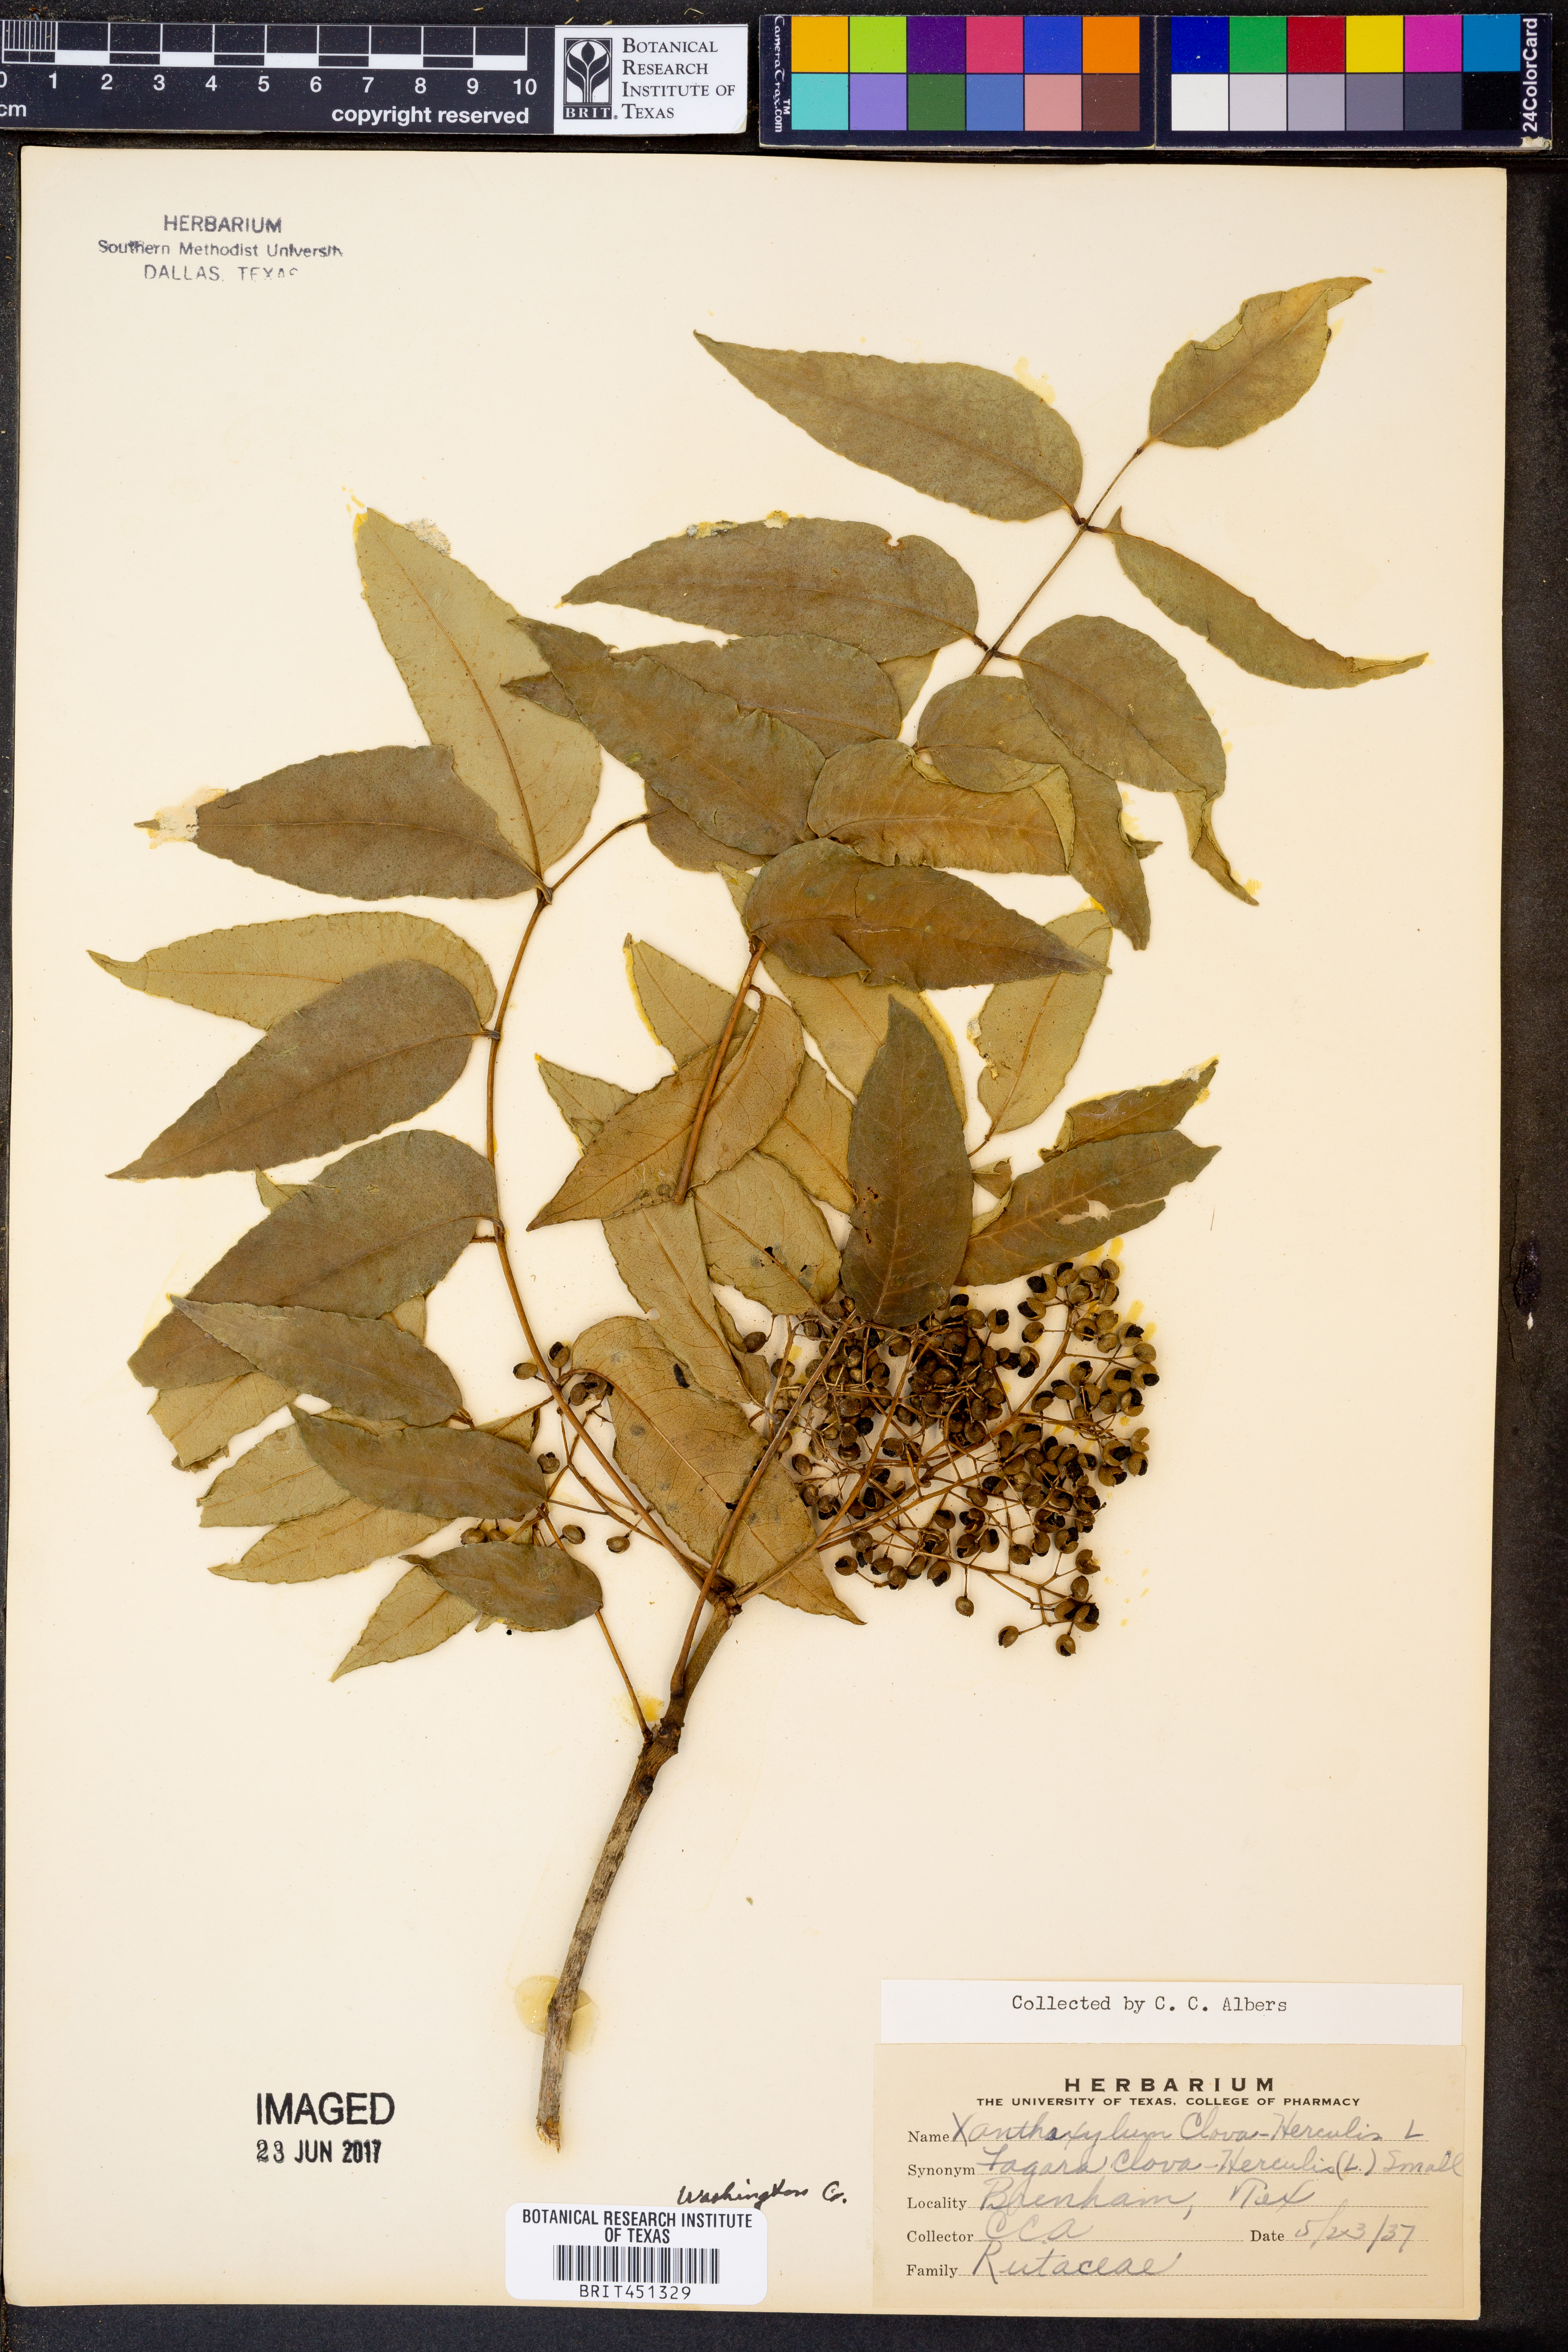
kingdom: Plantae
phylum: Tracheophyta
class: Magnoliopsida
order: Sapindales
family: Rutaceae
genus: Zanthoxylum
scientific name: Zanthoxylum avicennae
